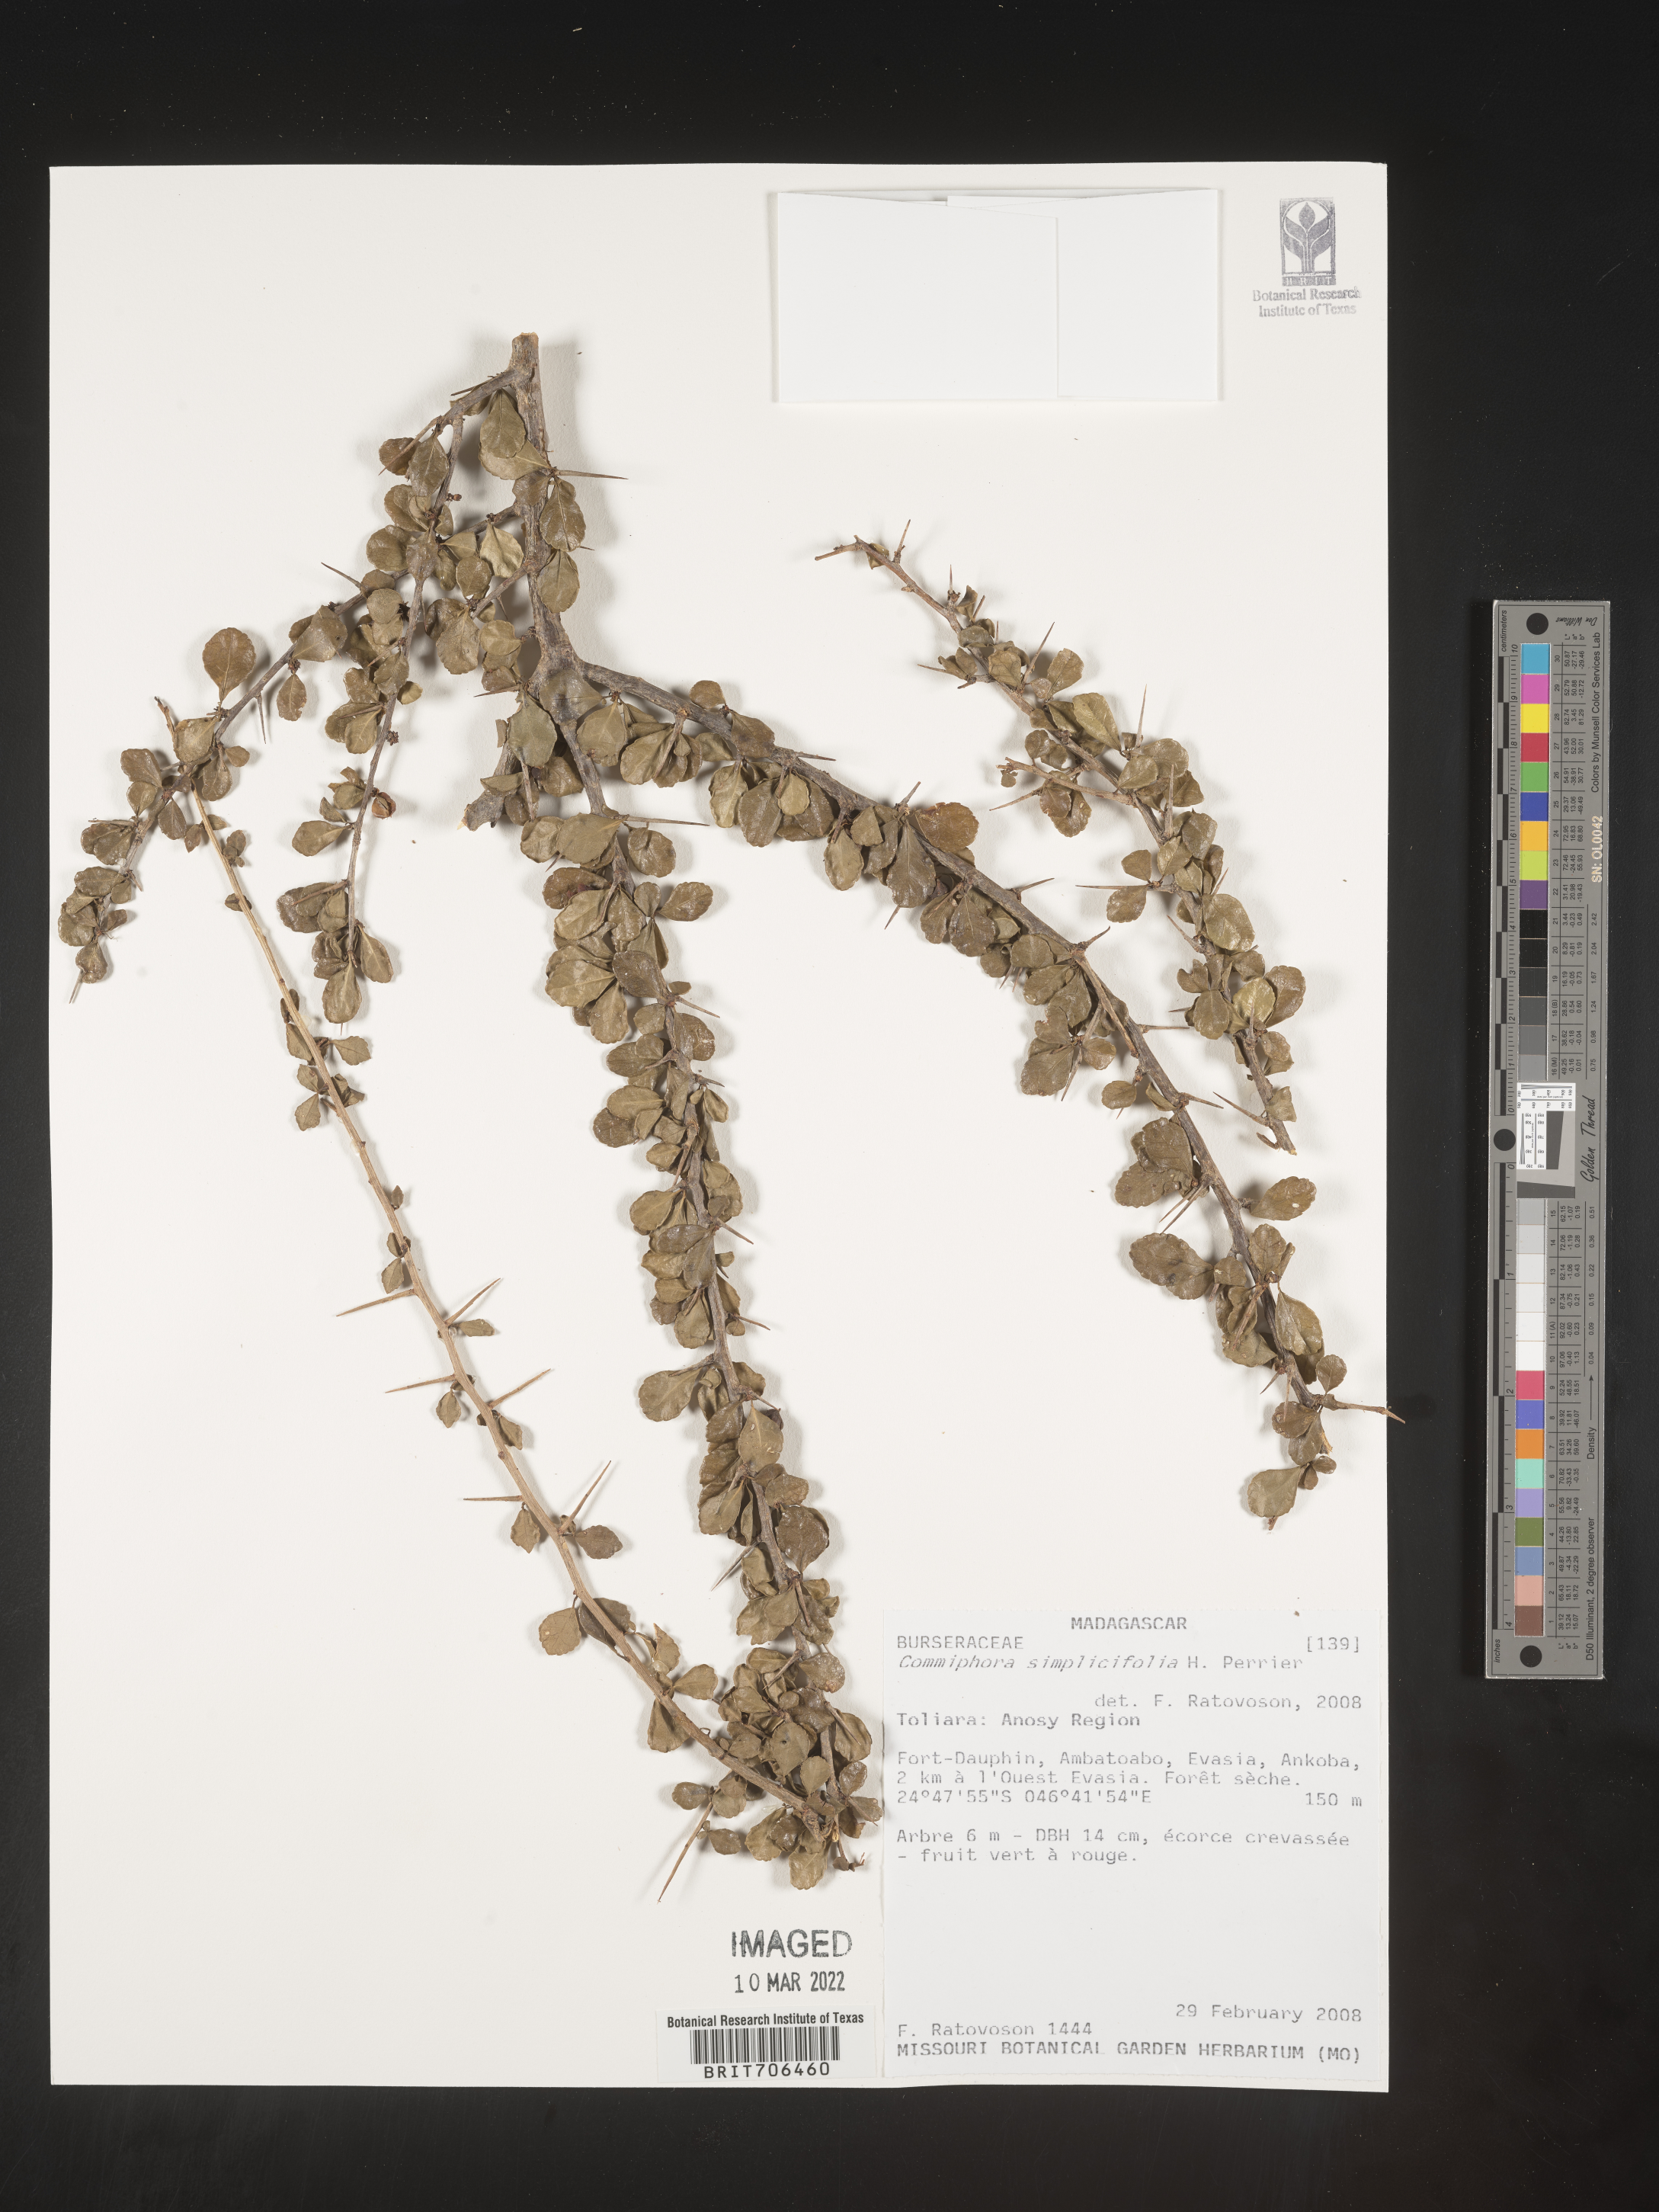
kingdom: Plantae
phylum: Tracheophyta
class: Magnoliopsida
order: Sapindales
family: Burseraceae
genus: Commiphora
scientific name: Commiphora
